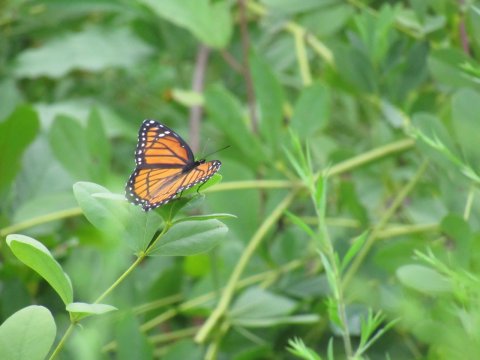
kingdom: Animalia
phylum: Arthropoda
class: Insecta
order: Lepidoptera
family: Nymphalidae
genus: Limenitis
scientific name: Limenitis archippus
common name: Viceroy
